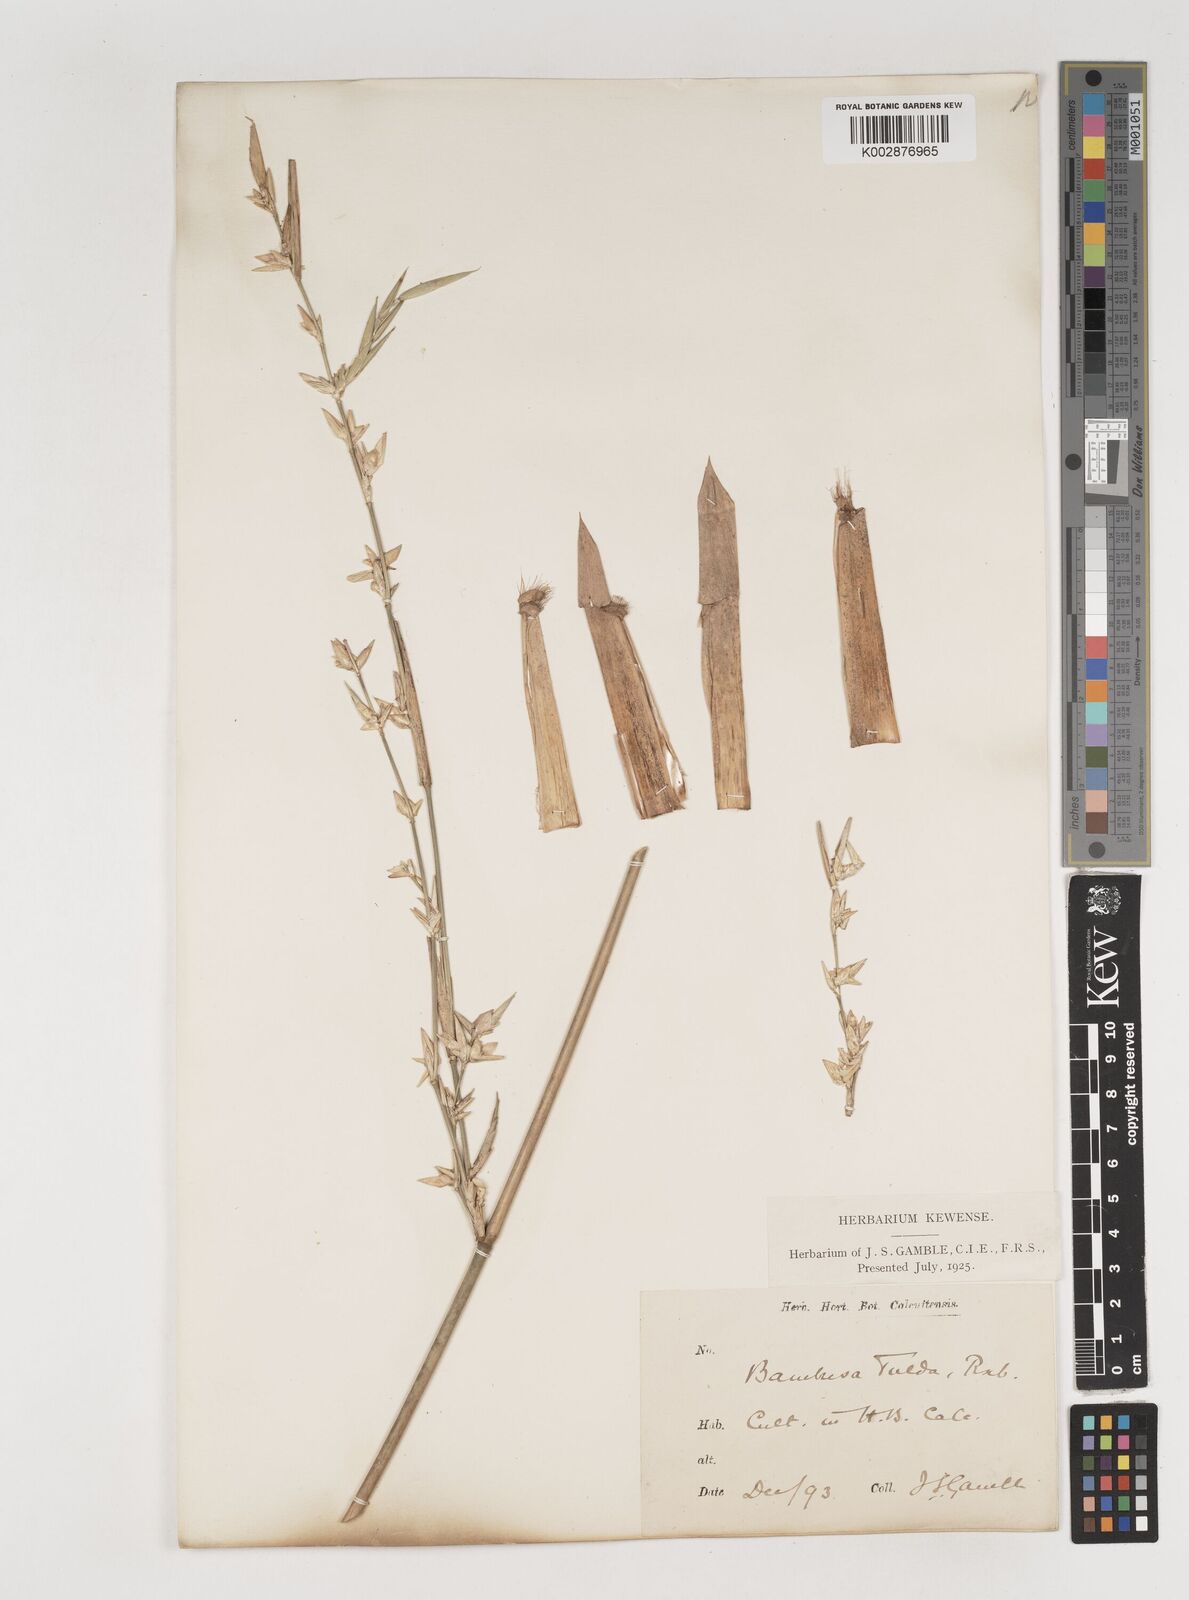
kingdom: Plantae
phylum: Tracheophyta
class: Liliopsida
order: Poales
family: Poaceae
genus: Bambusa
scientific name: Bambusa tulda
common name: Bengal bamboo
